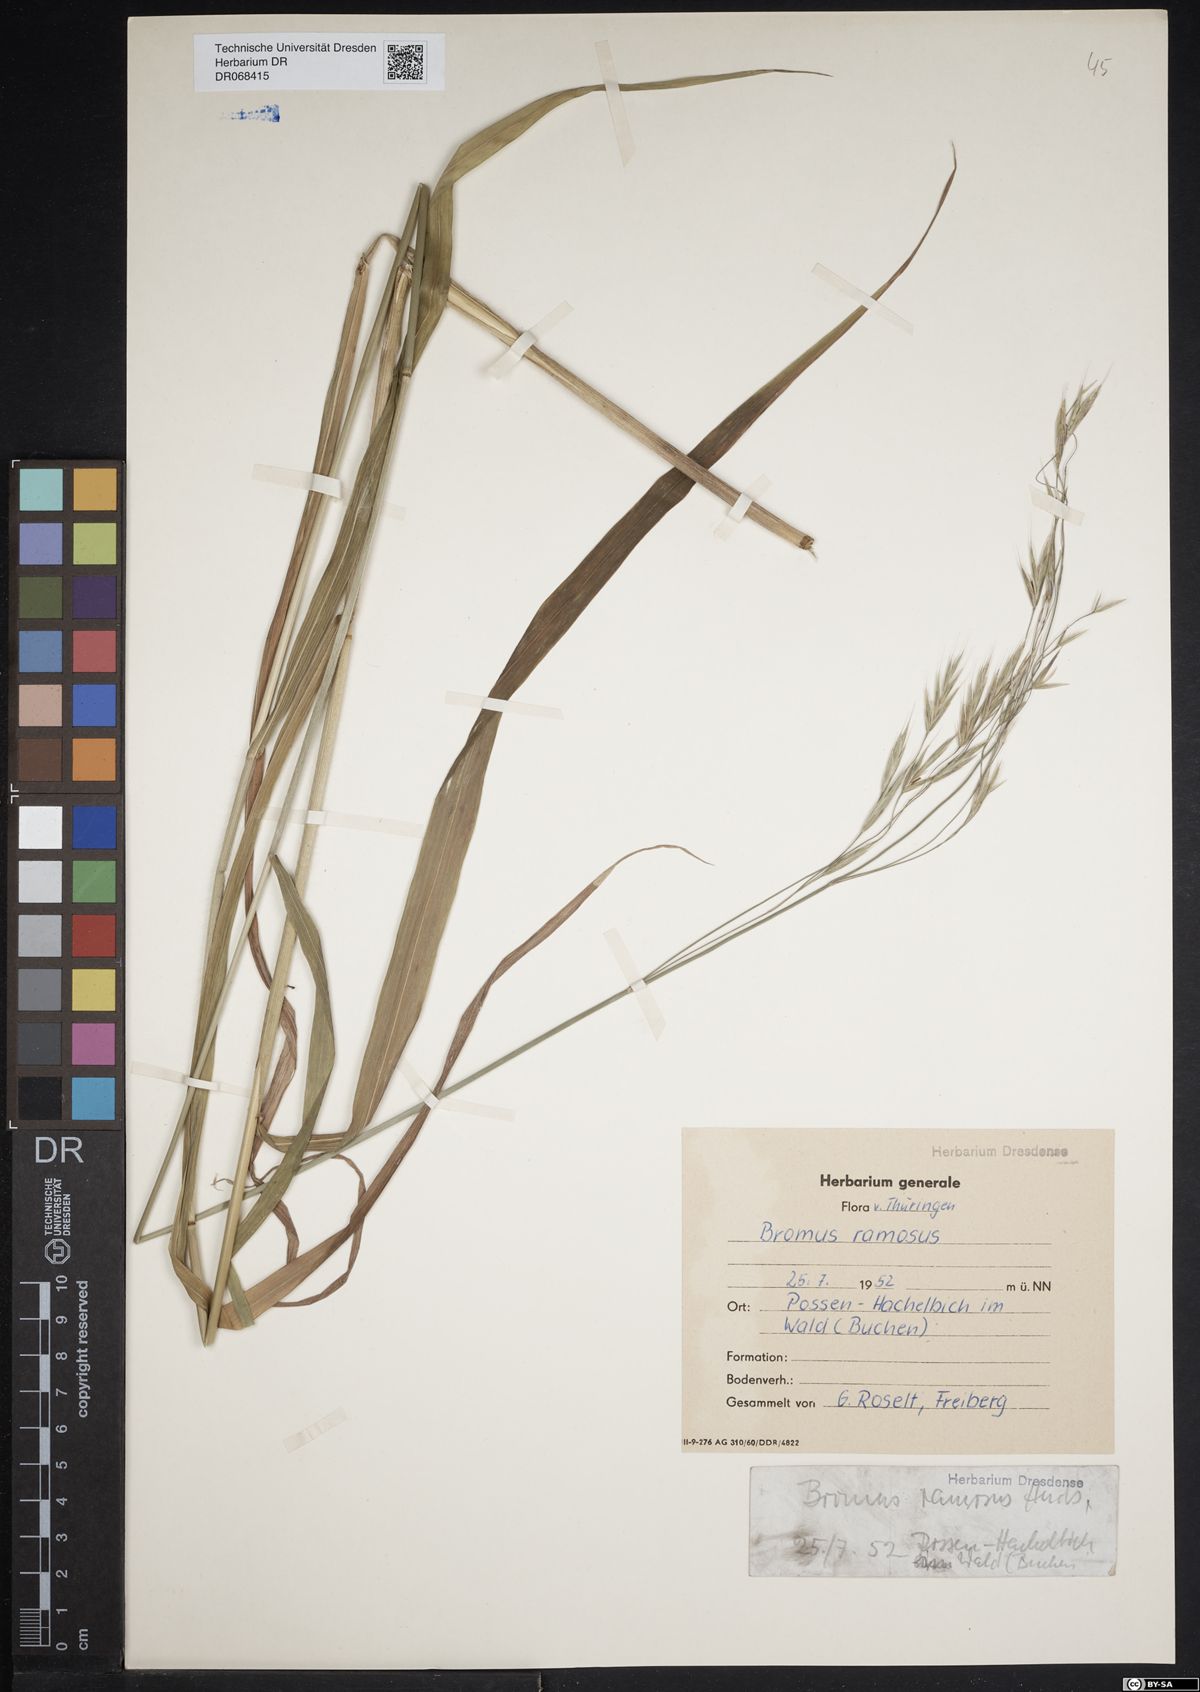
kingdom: Plantae
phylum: Tracheophyta
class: Liliopsida
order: Poales
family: Poaceae
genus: Bromus
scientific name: Bromus ramosus
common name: Hairy brome
